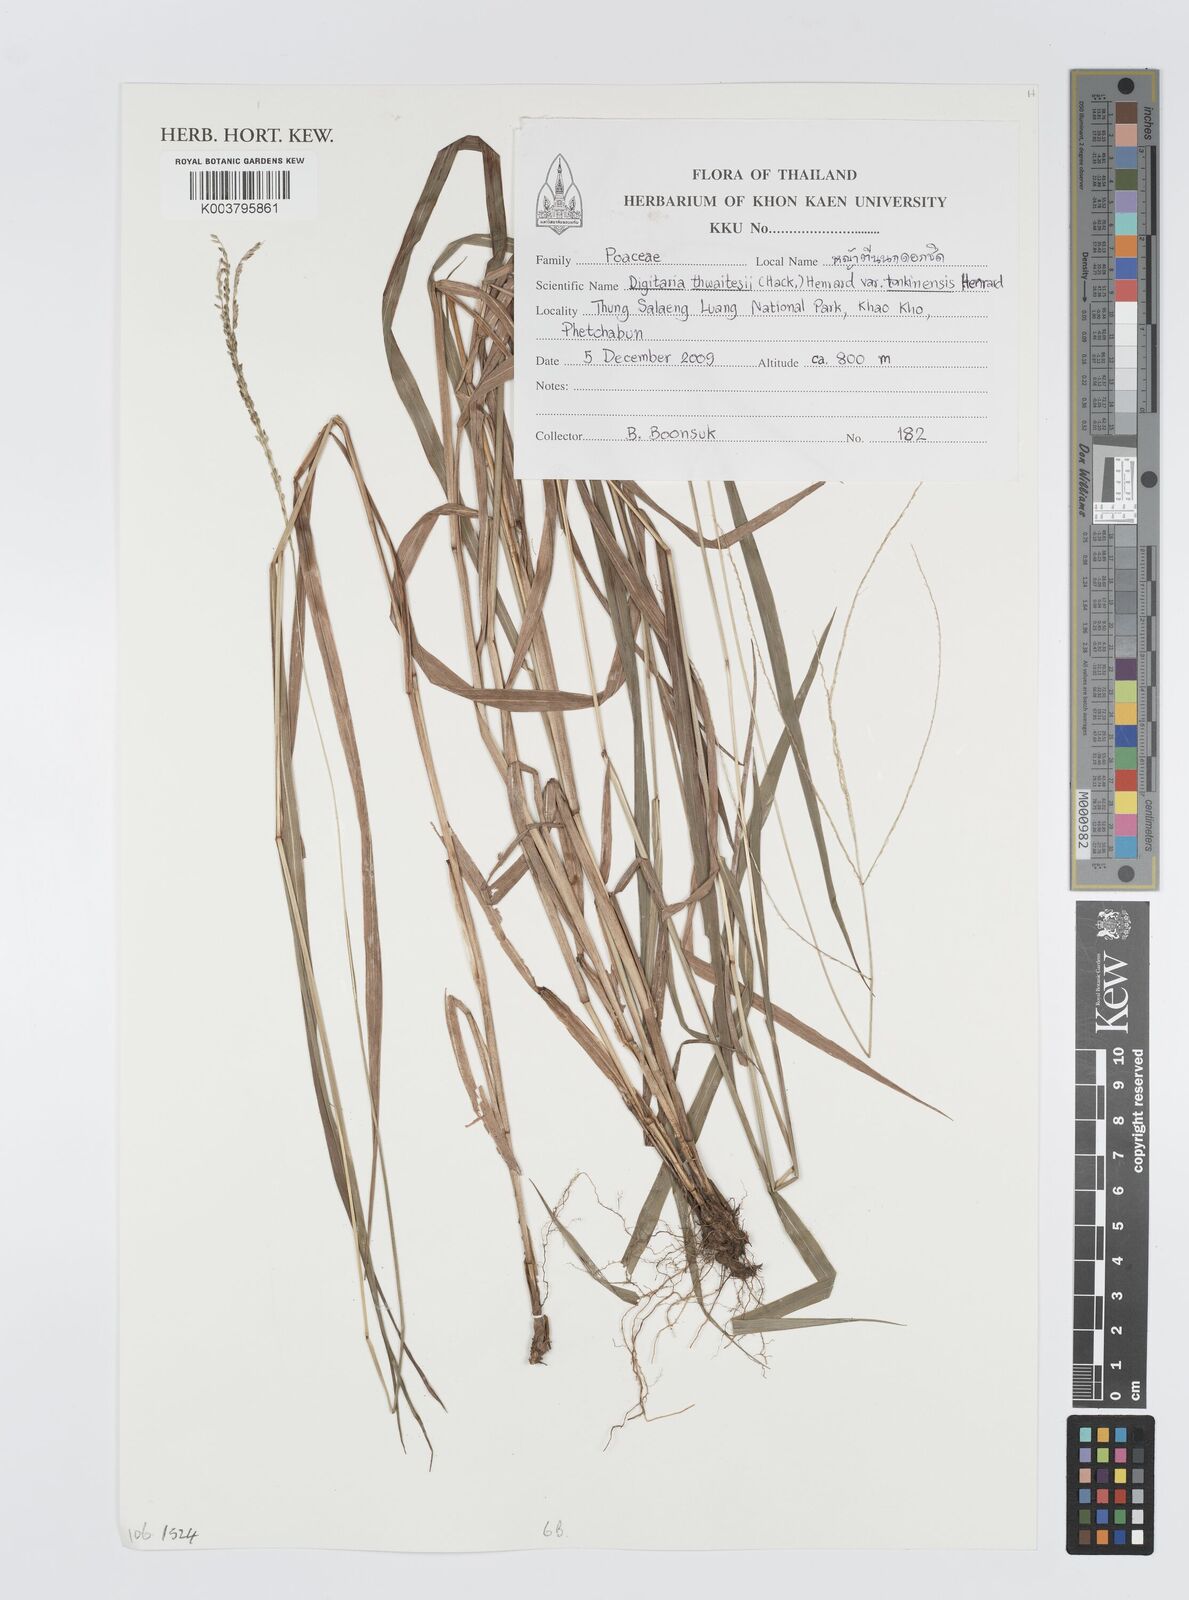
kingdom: Plantae
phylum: Tracheophyta
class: Liliopsida
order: Poales
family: Poaceae
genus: Digitaria
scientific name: Digitaria thwaitesii
